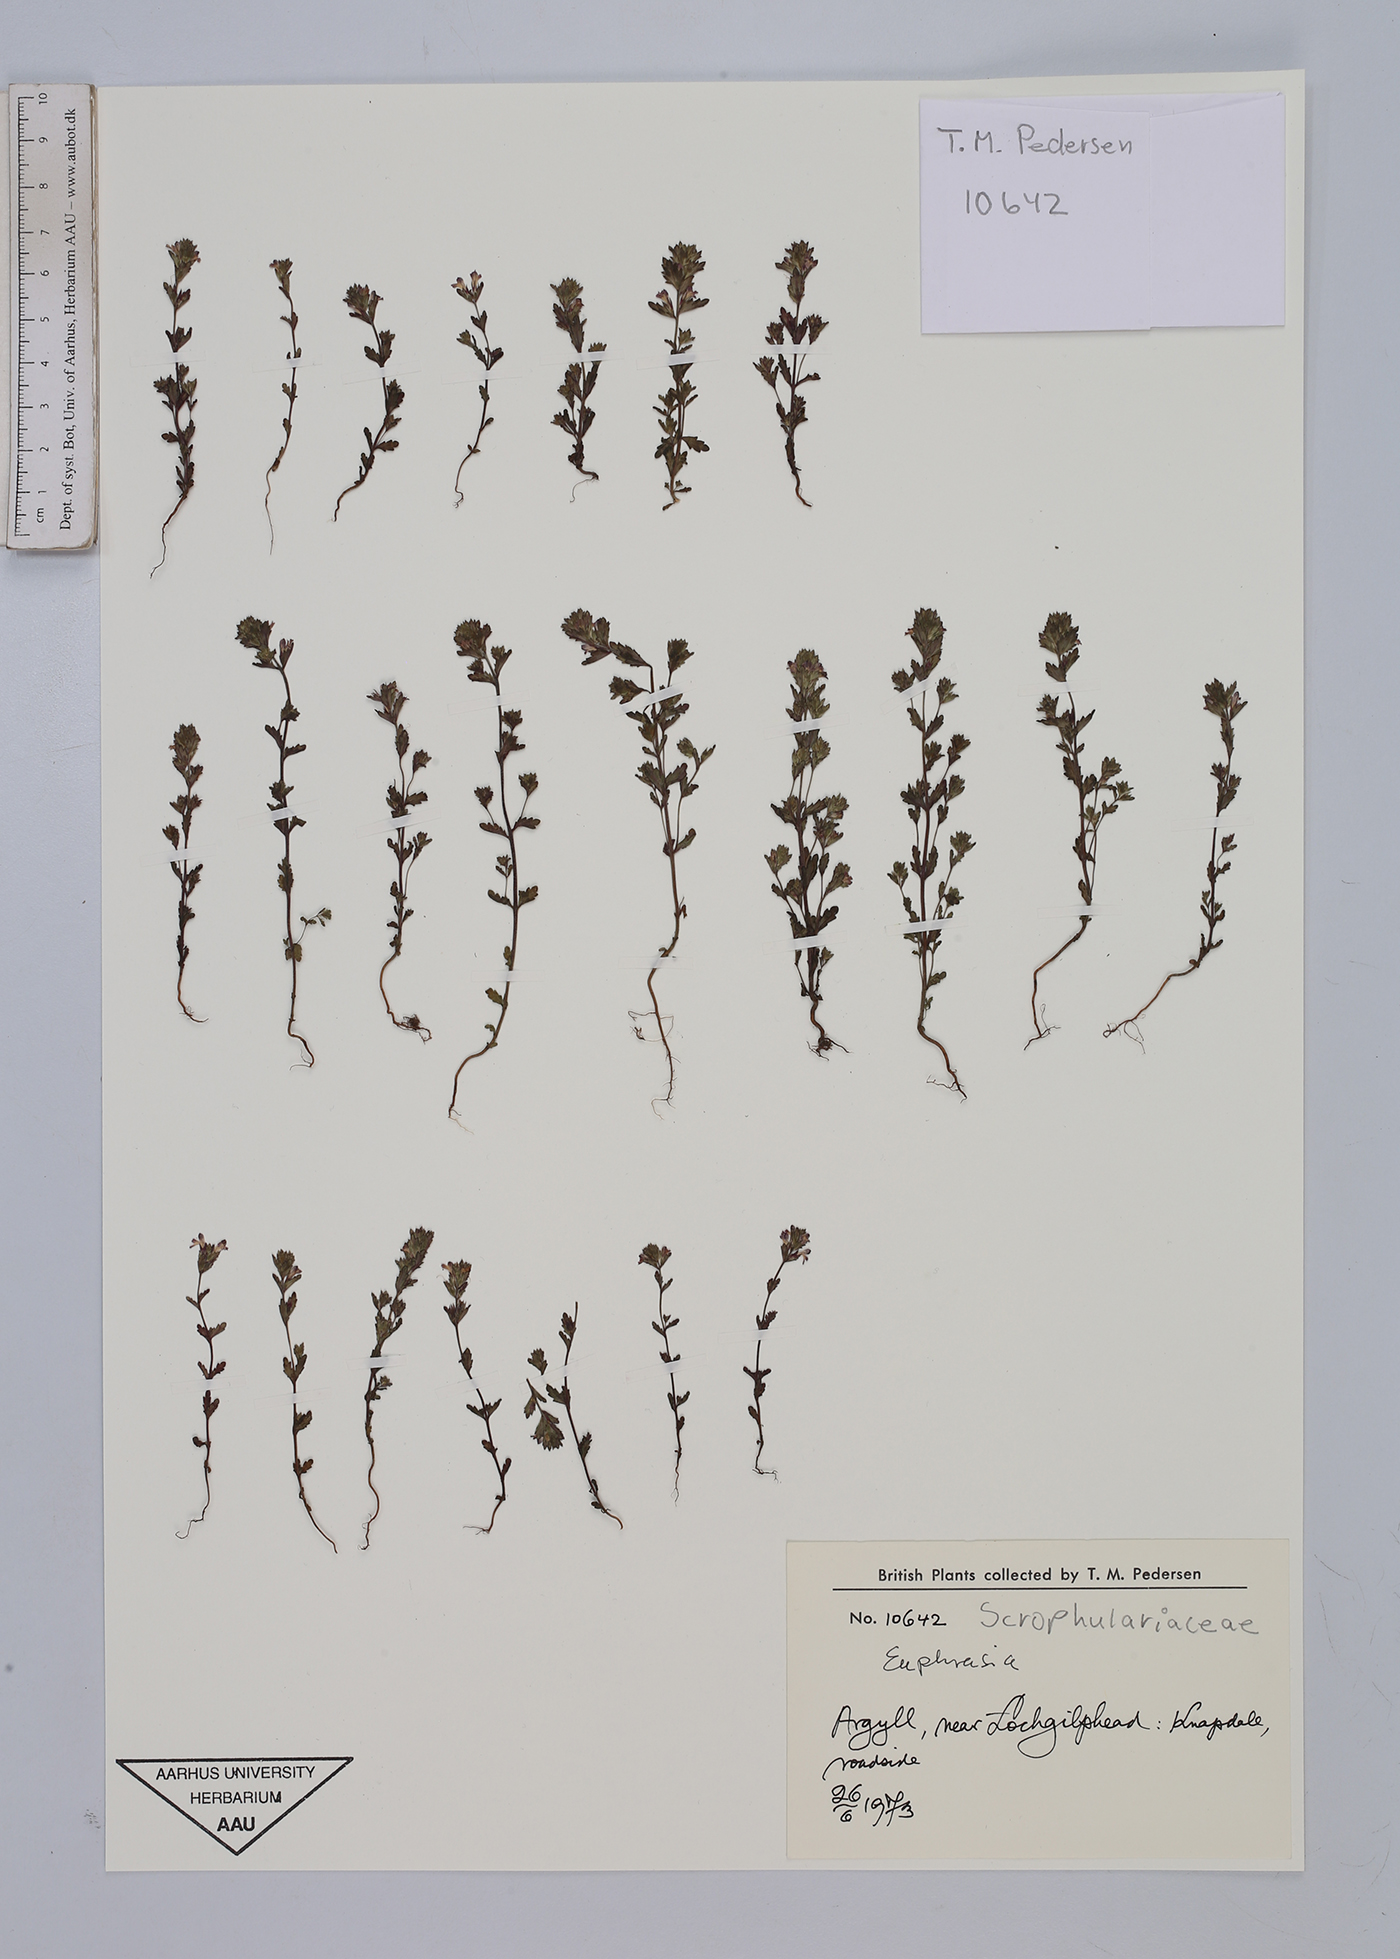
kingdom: Plantae
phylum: Tracheophyta
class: Magnoliopsida
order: Lamiales
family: Orobanchaceae
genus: Euphrasia
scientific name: Euphrasia
